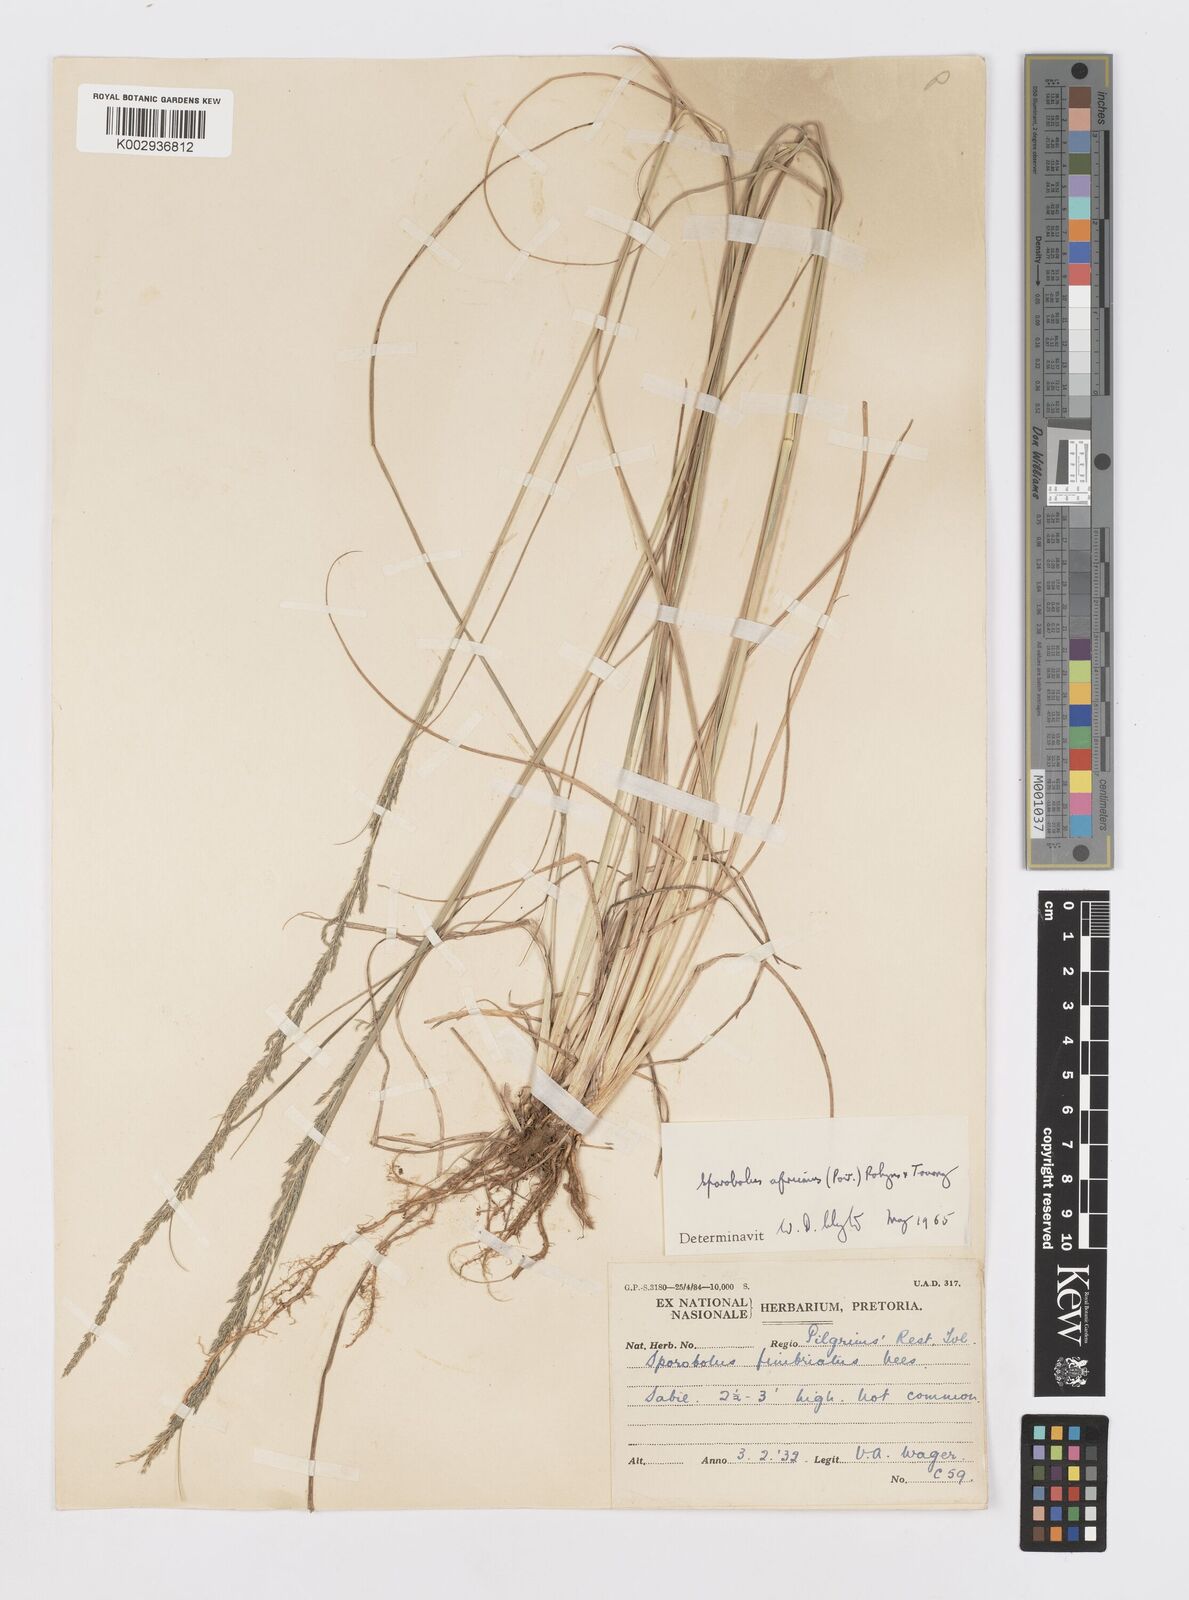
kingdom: Plantae
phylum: Tracheophyta
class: Liliopsida
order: Poales
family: Poaceae
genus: Sporobolus
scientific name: Sporobolus africanus
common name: African dropseed
